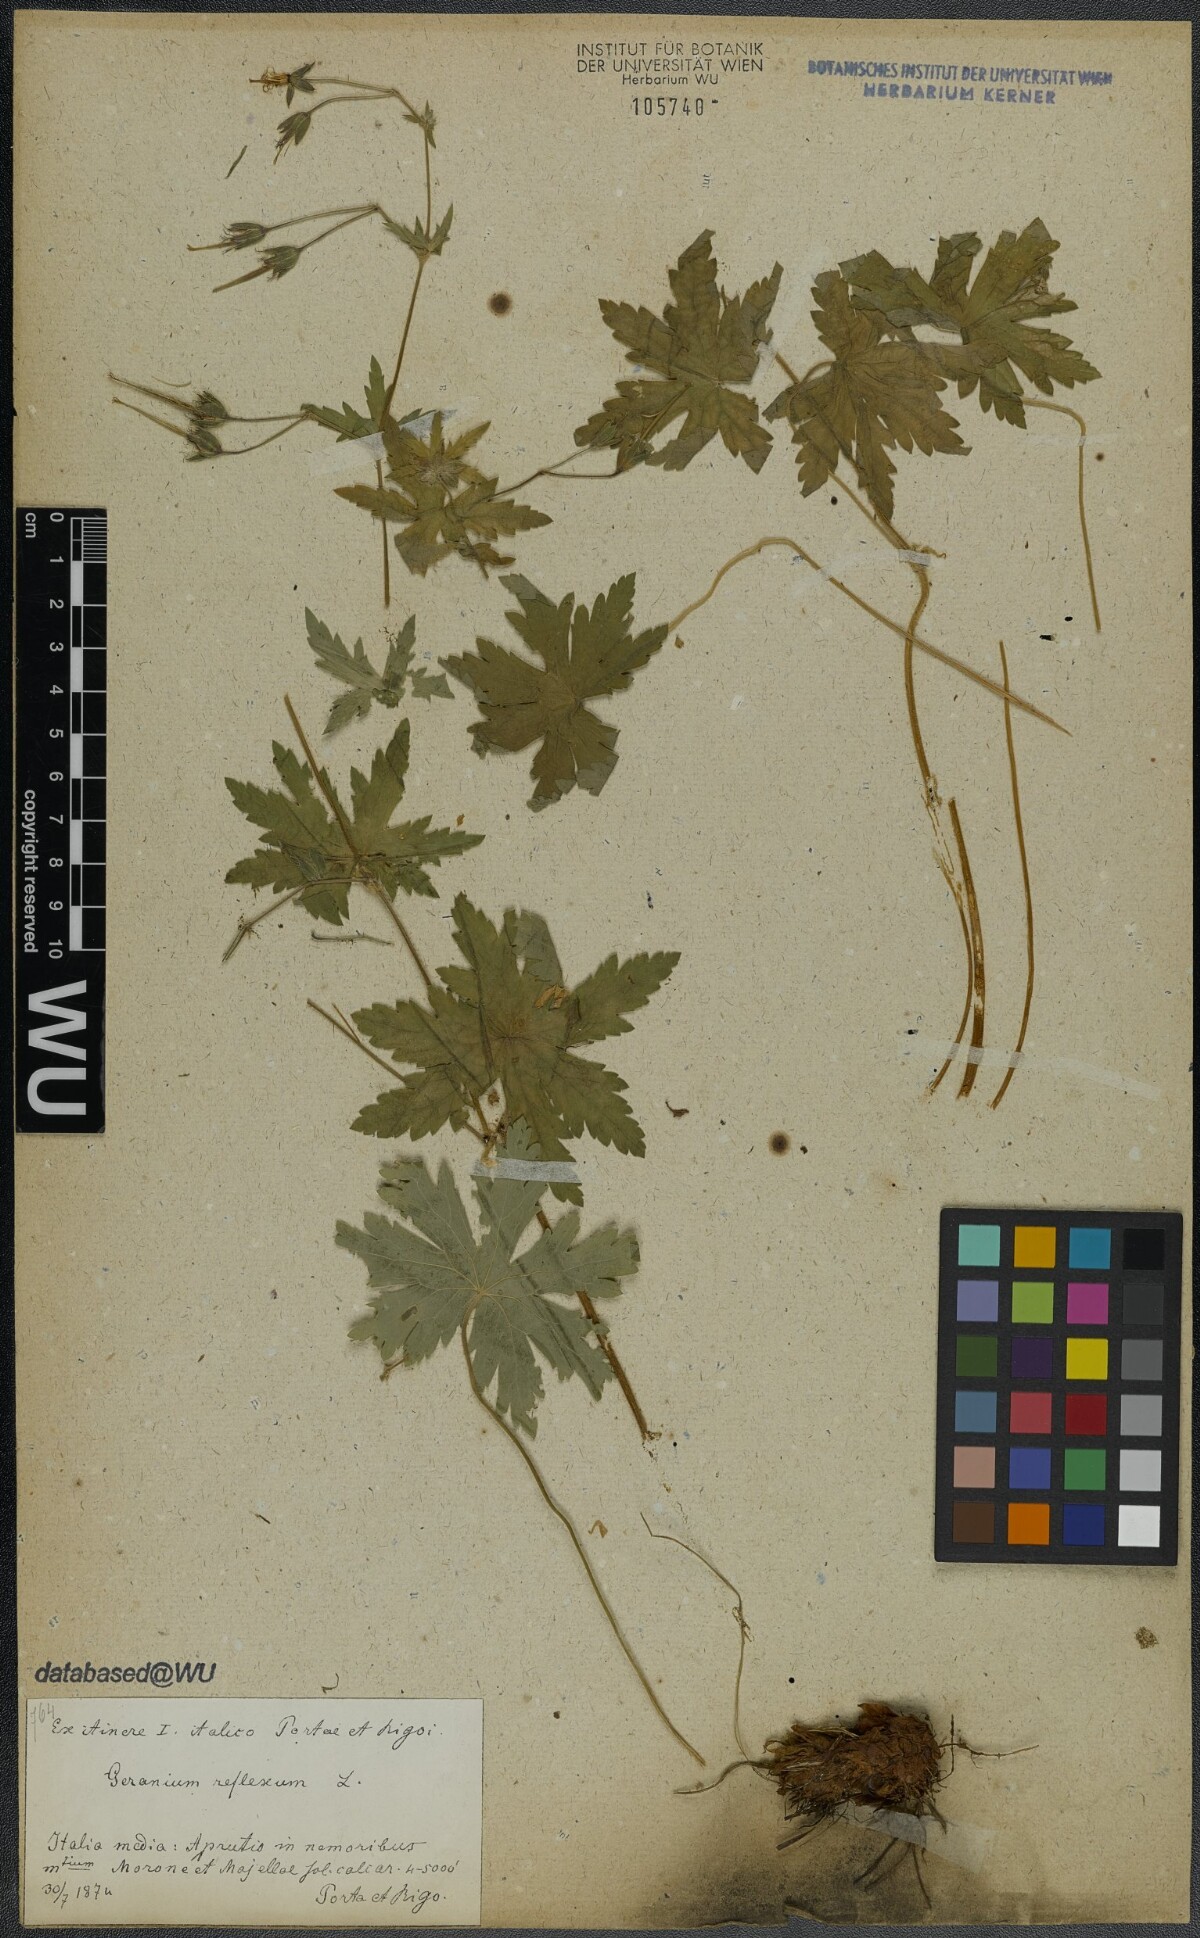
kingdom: Plantae
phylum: Tracheophyta
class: Magnoliopsida
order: Geraniales
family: Geraniaceae
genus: Geranium
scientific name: Geranium reflexum
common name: Reflexed crane's-bill
